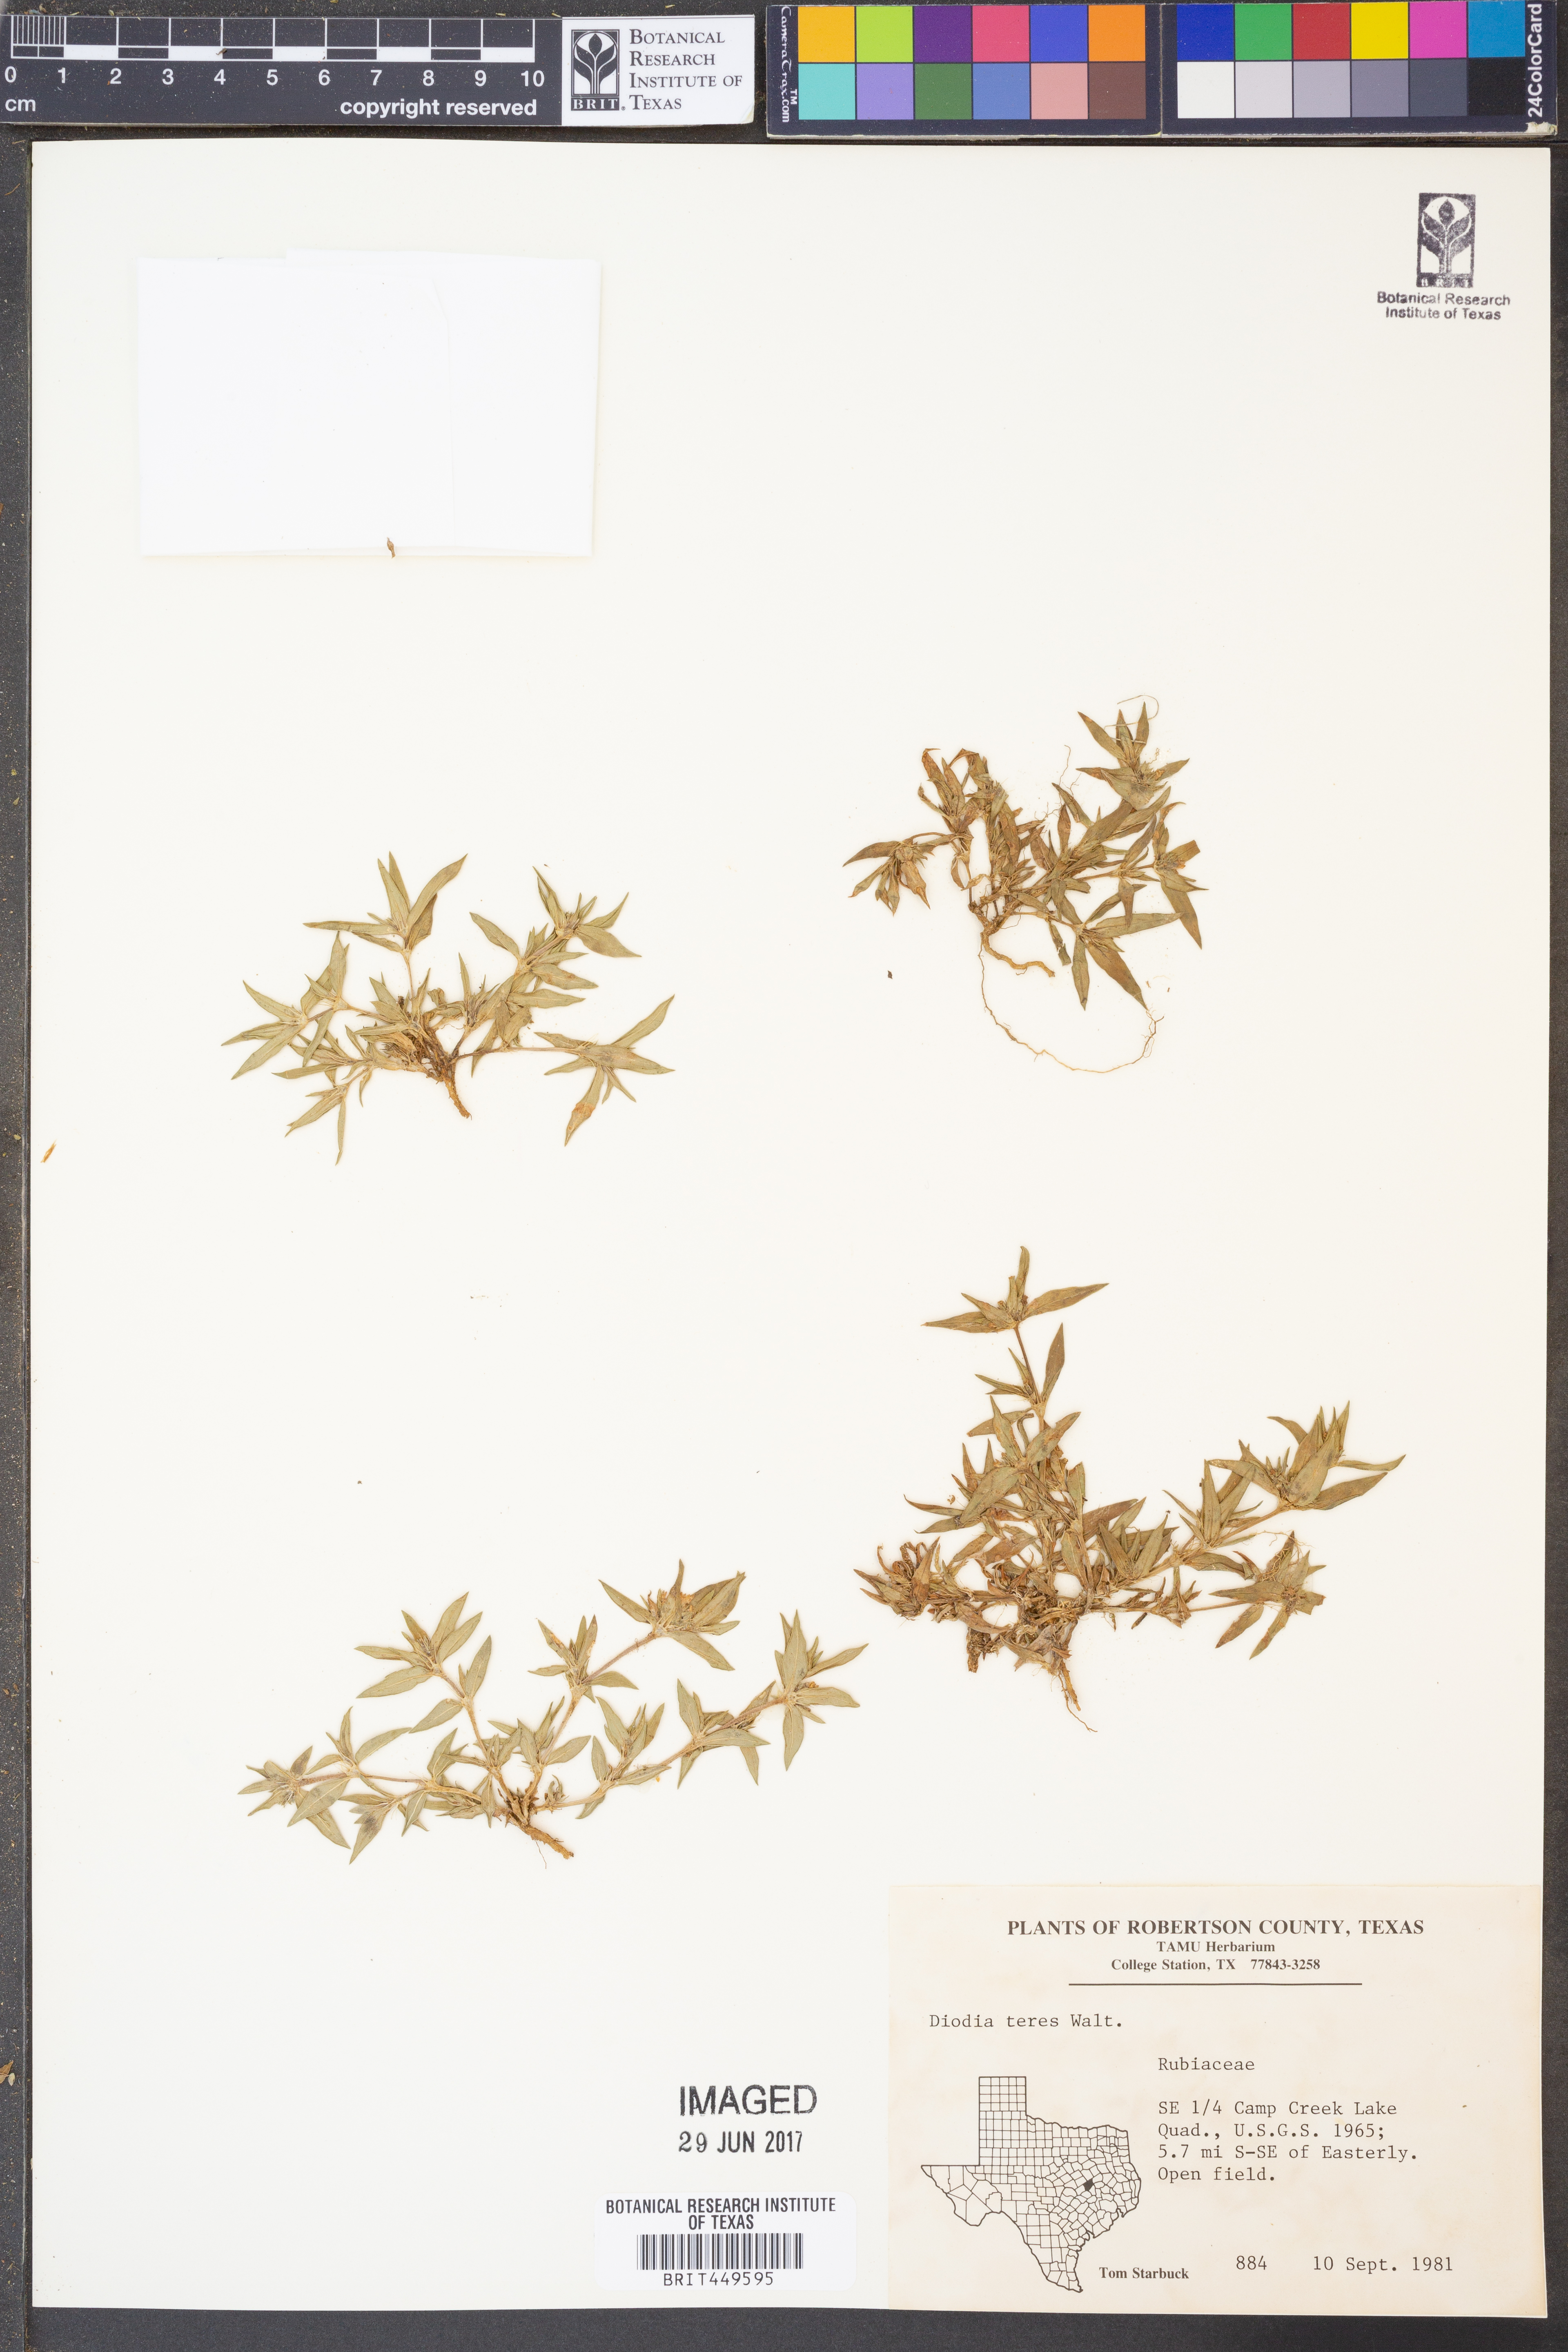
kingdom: Plantae
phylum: Tracheophyta
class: Magnoliopsida
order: Gentianales
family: Rubiaceae
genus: Hexasepalum
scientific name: Hexasepalum teres
